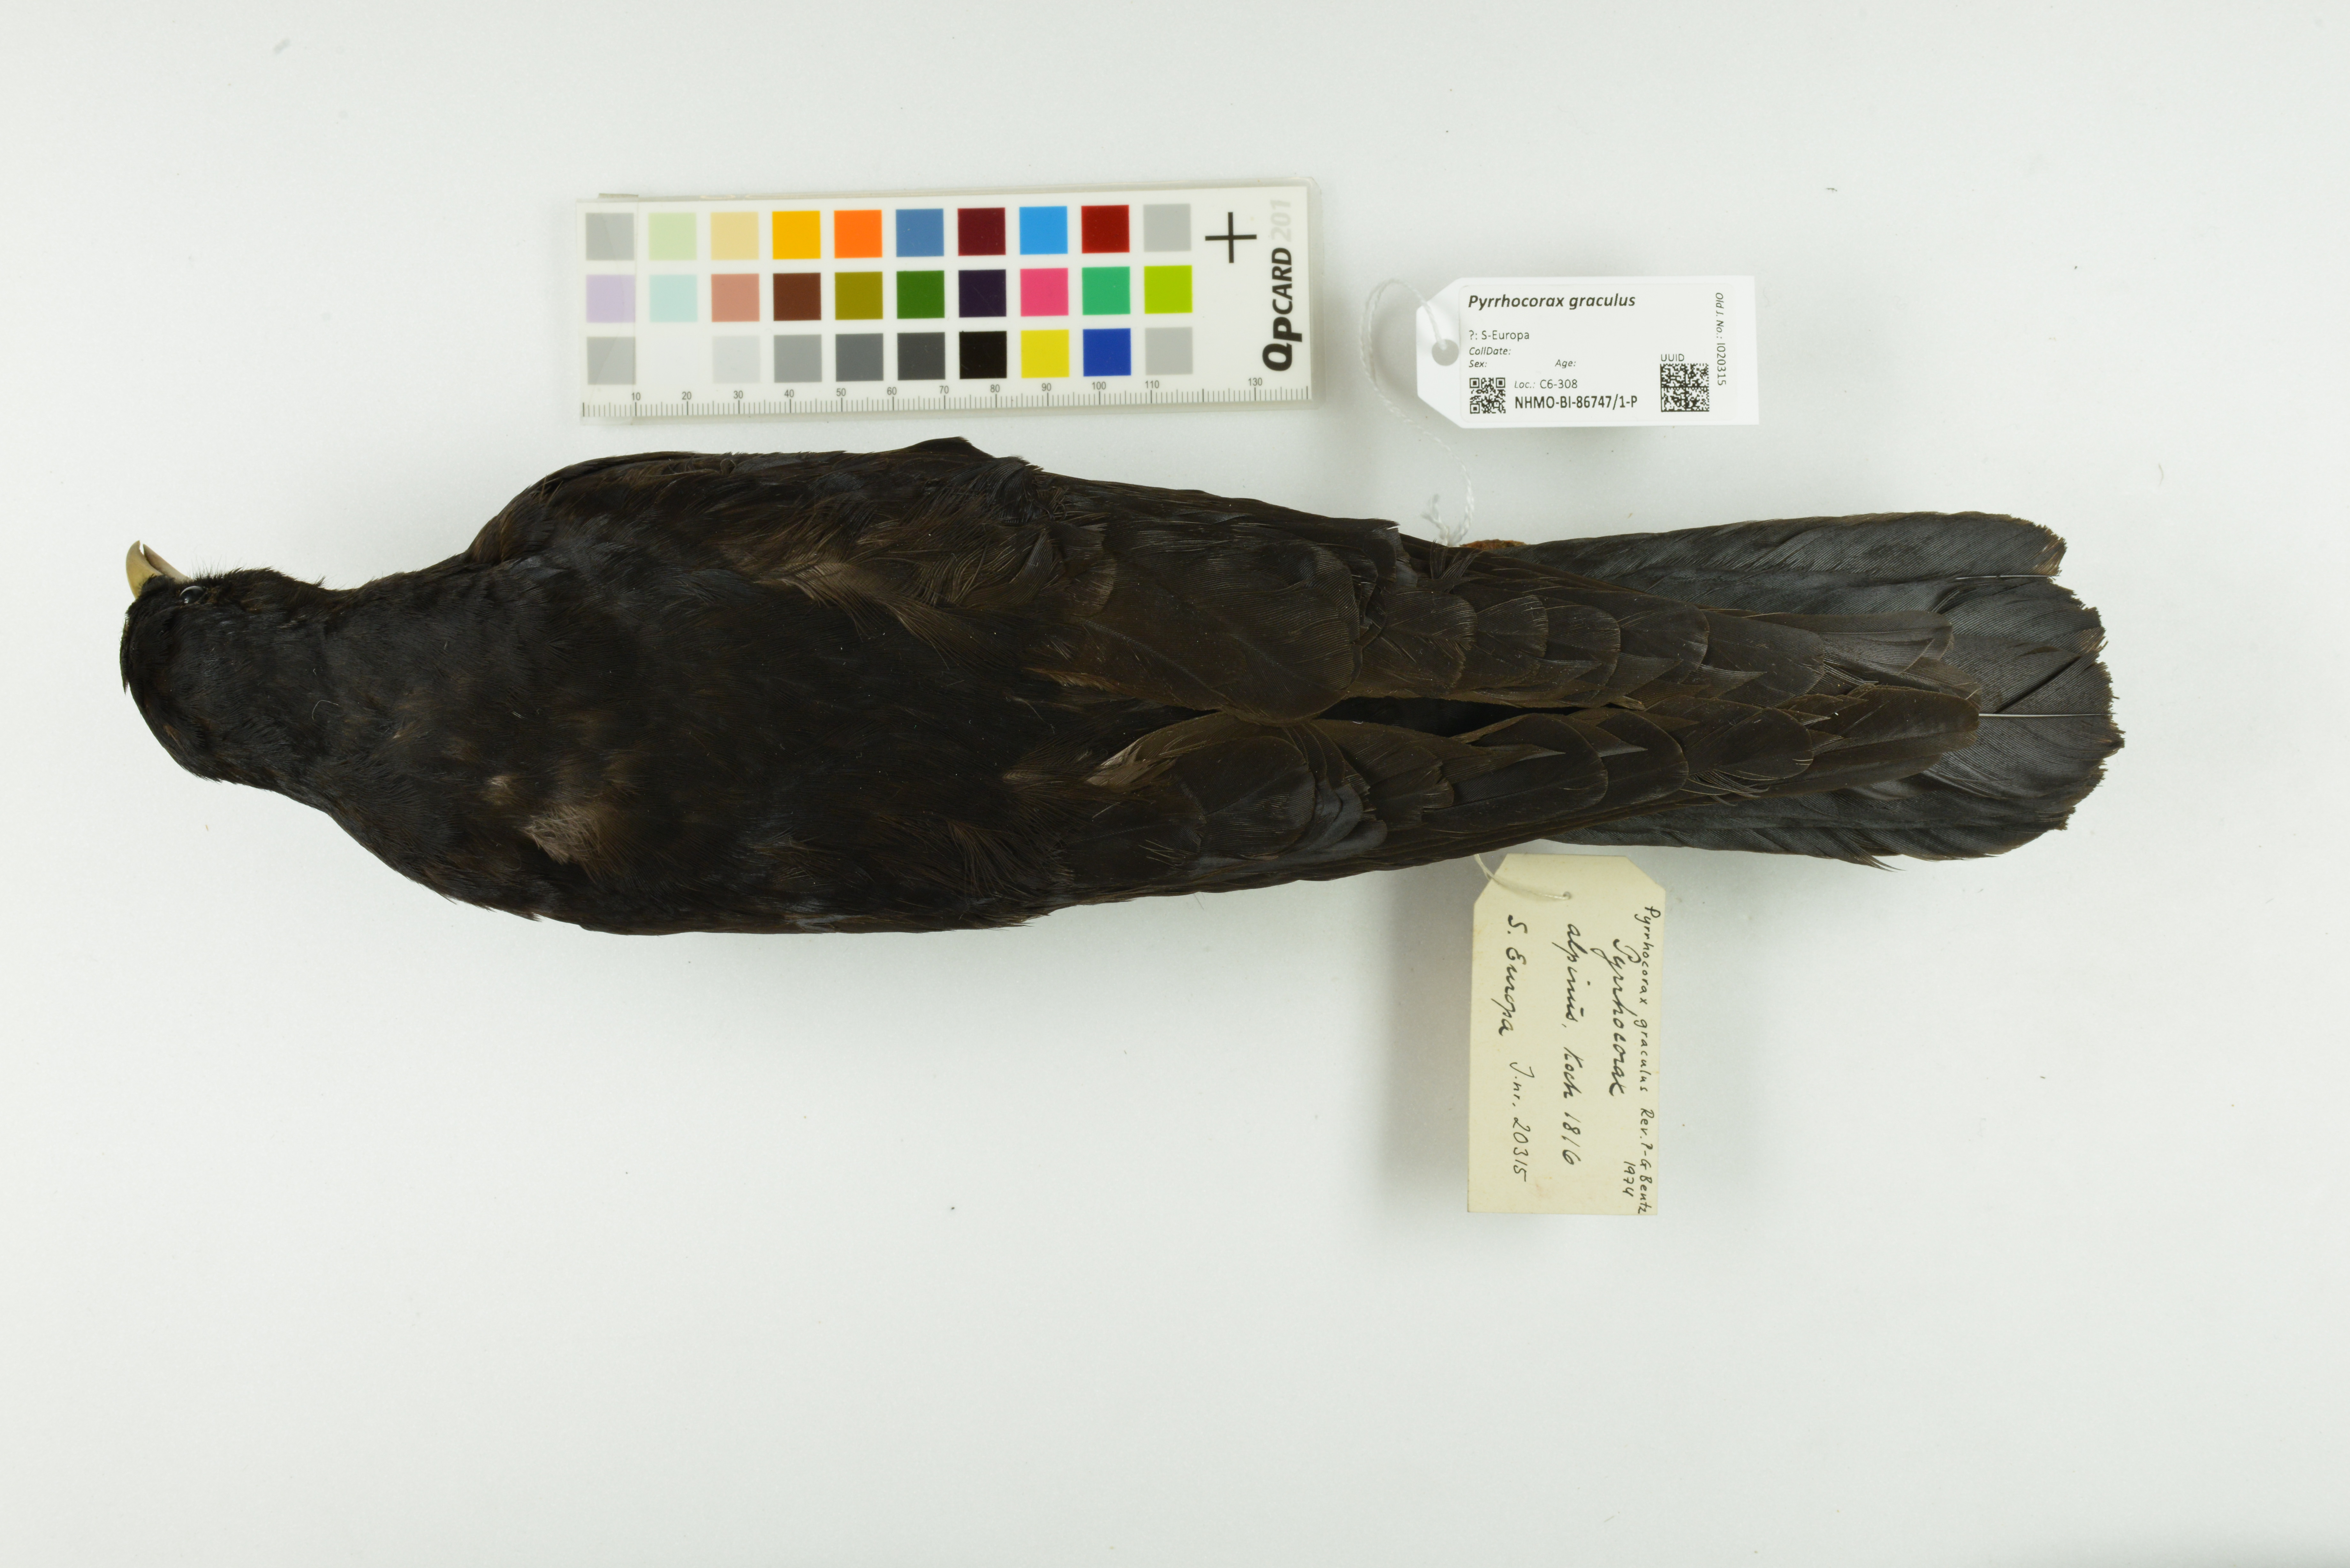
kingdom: Animalia
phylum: Chordata
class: Aves
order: Passeriformes
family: Corvidae
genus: Pyrrhocorax
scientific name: Pyrrhocorax graculus
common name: Alpine chough
